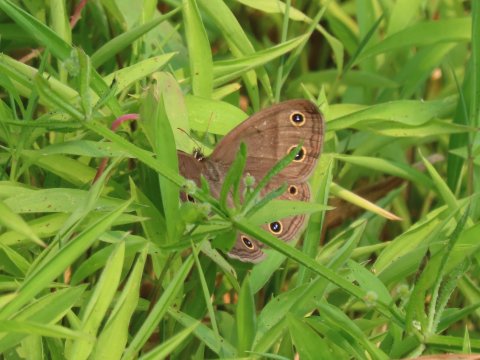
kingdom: Animalia
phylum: Arthropoda
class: Insecta
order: Lepidoptera
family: Nymphalidae
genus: Euptychia
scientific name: Euptychia cymela
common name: Little Wood Satyr
